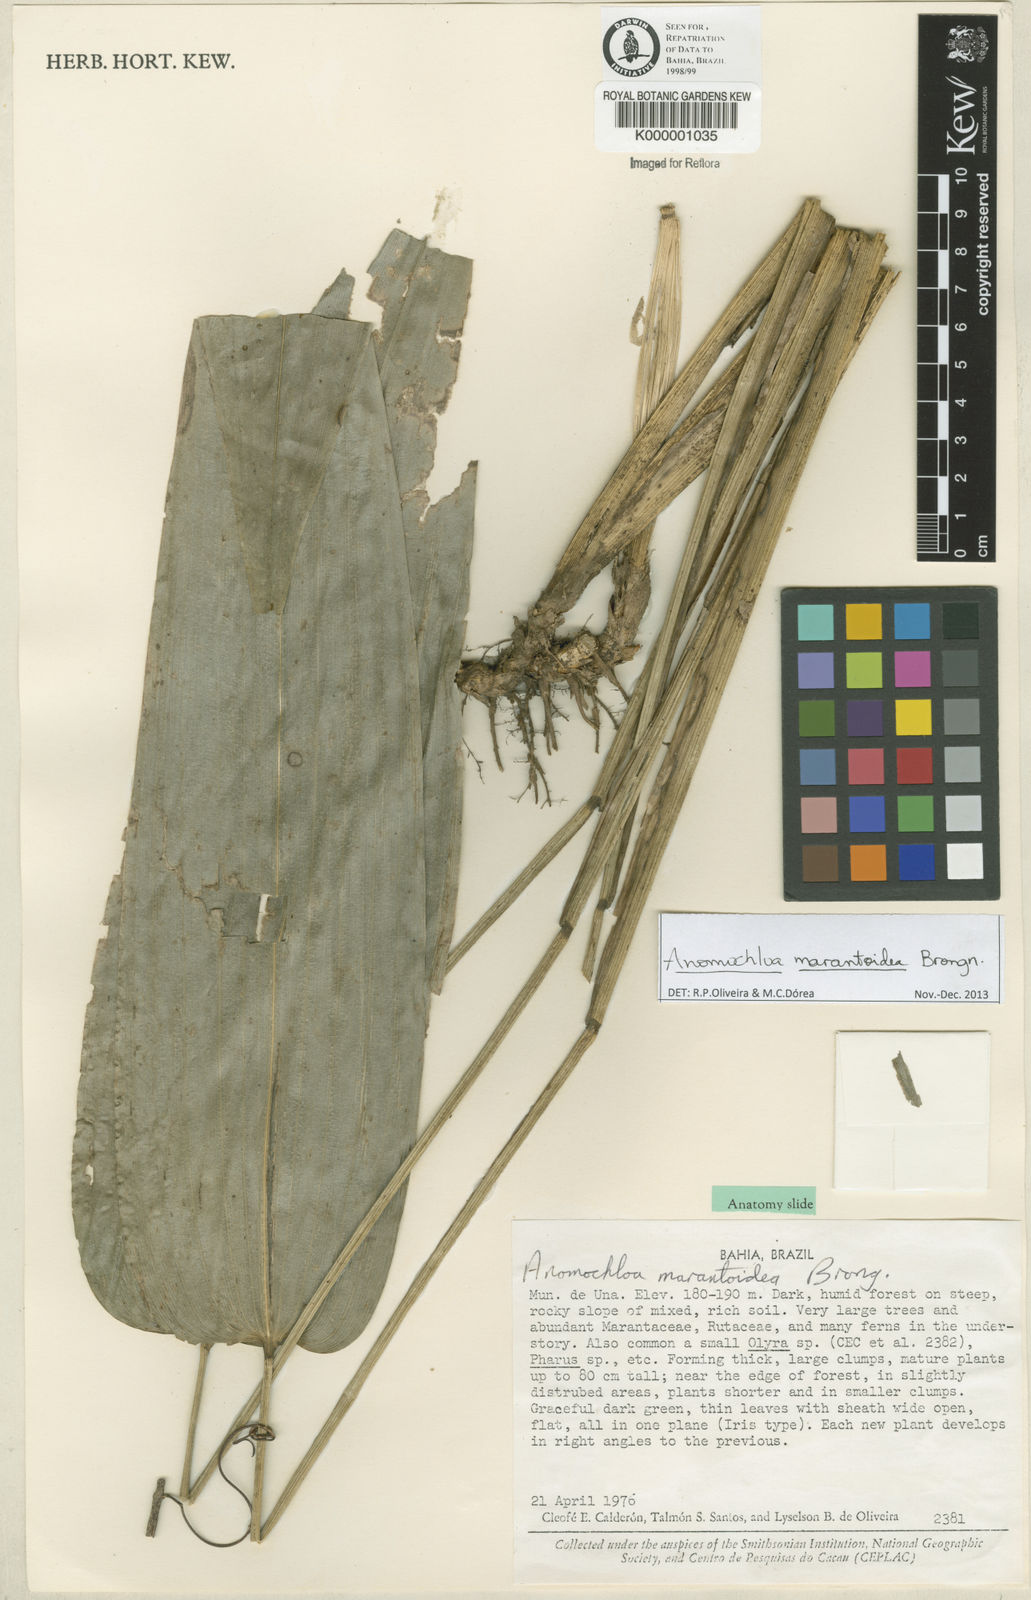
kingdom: Plantae
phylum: Tracheophyta
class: Liliopsida
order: Poales
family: Poaceae
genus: Anomochloa
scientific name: Anomochloa marantoidea
